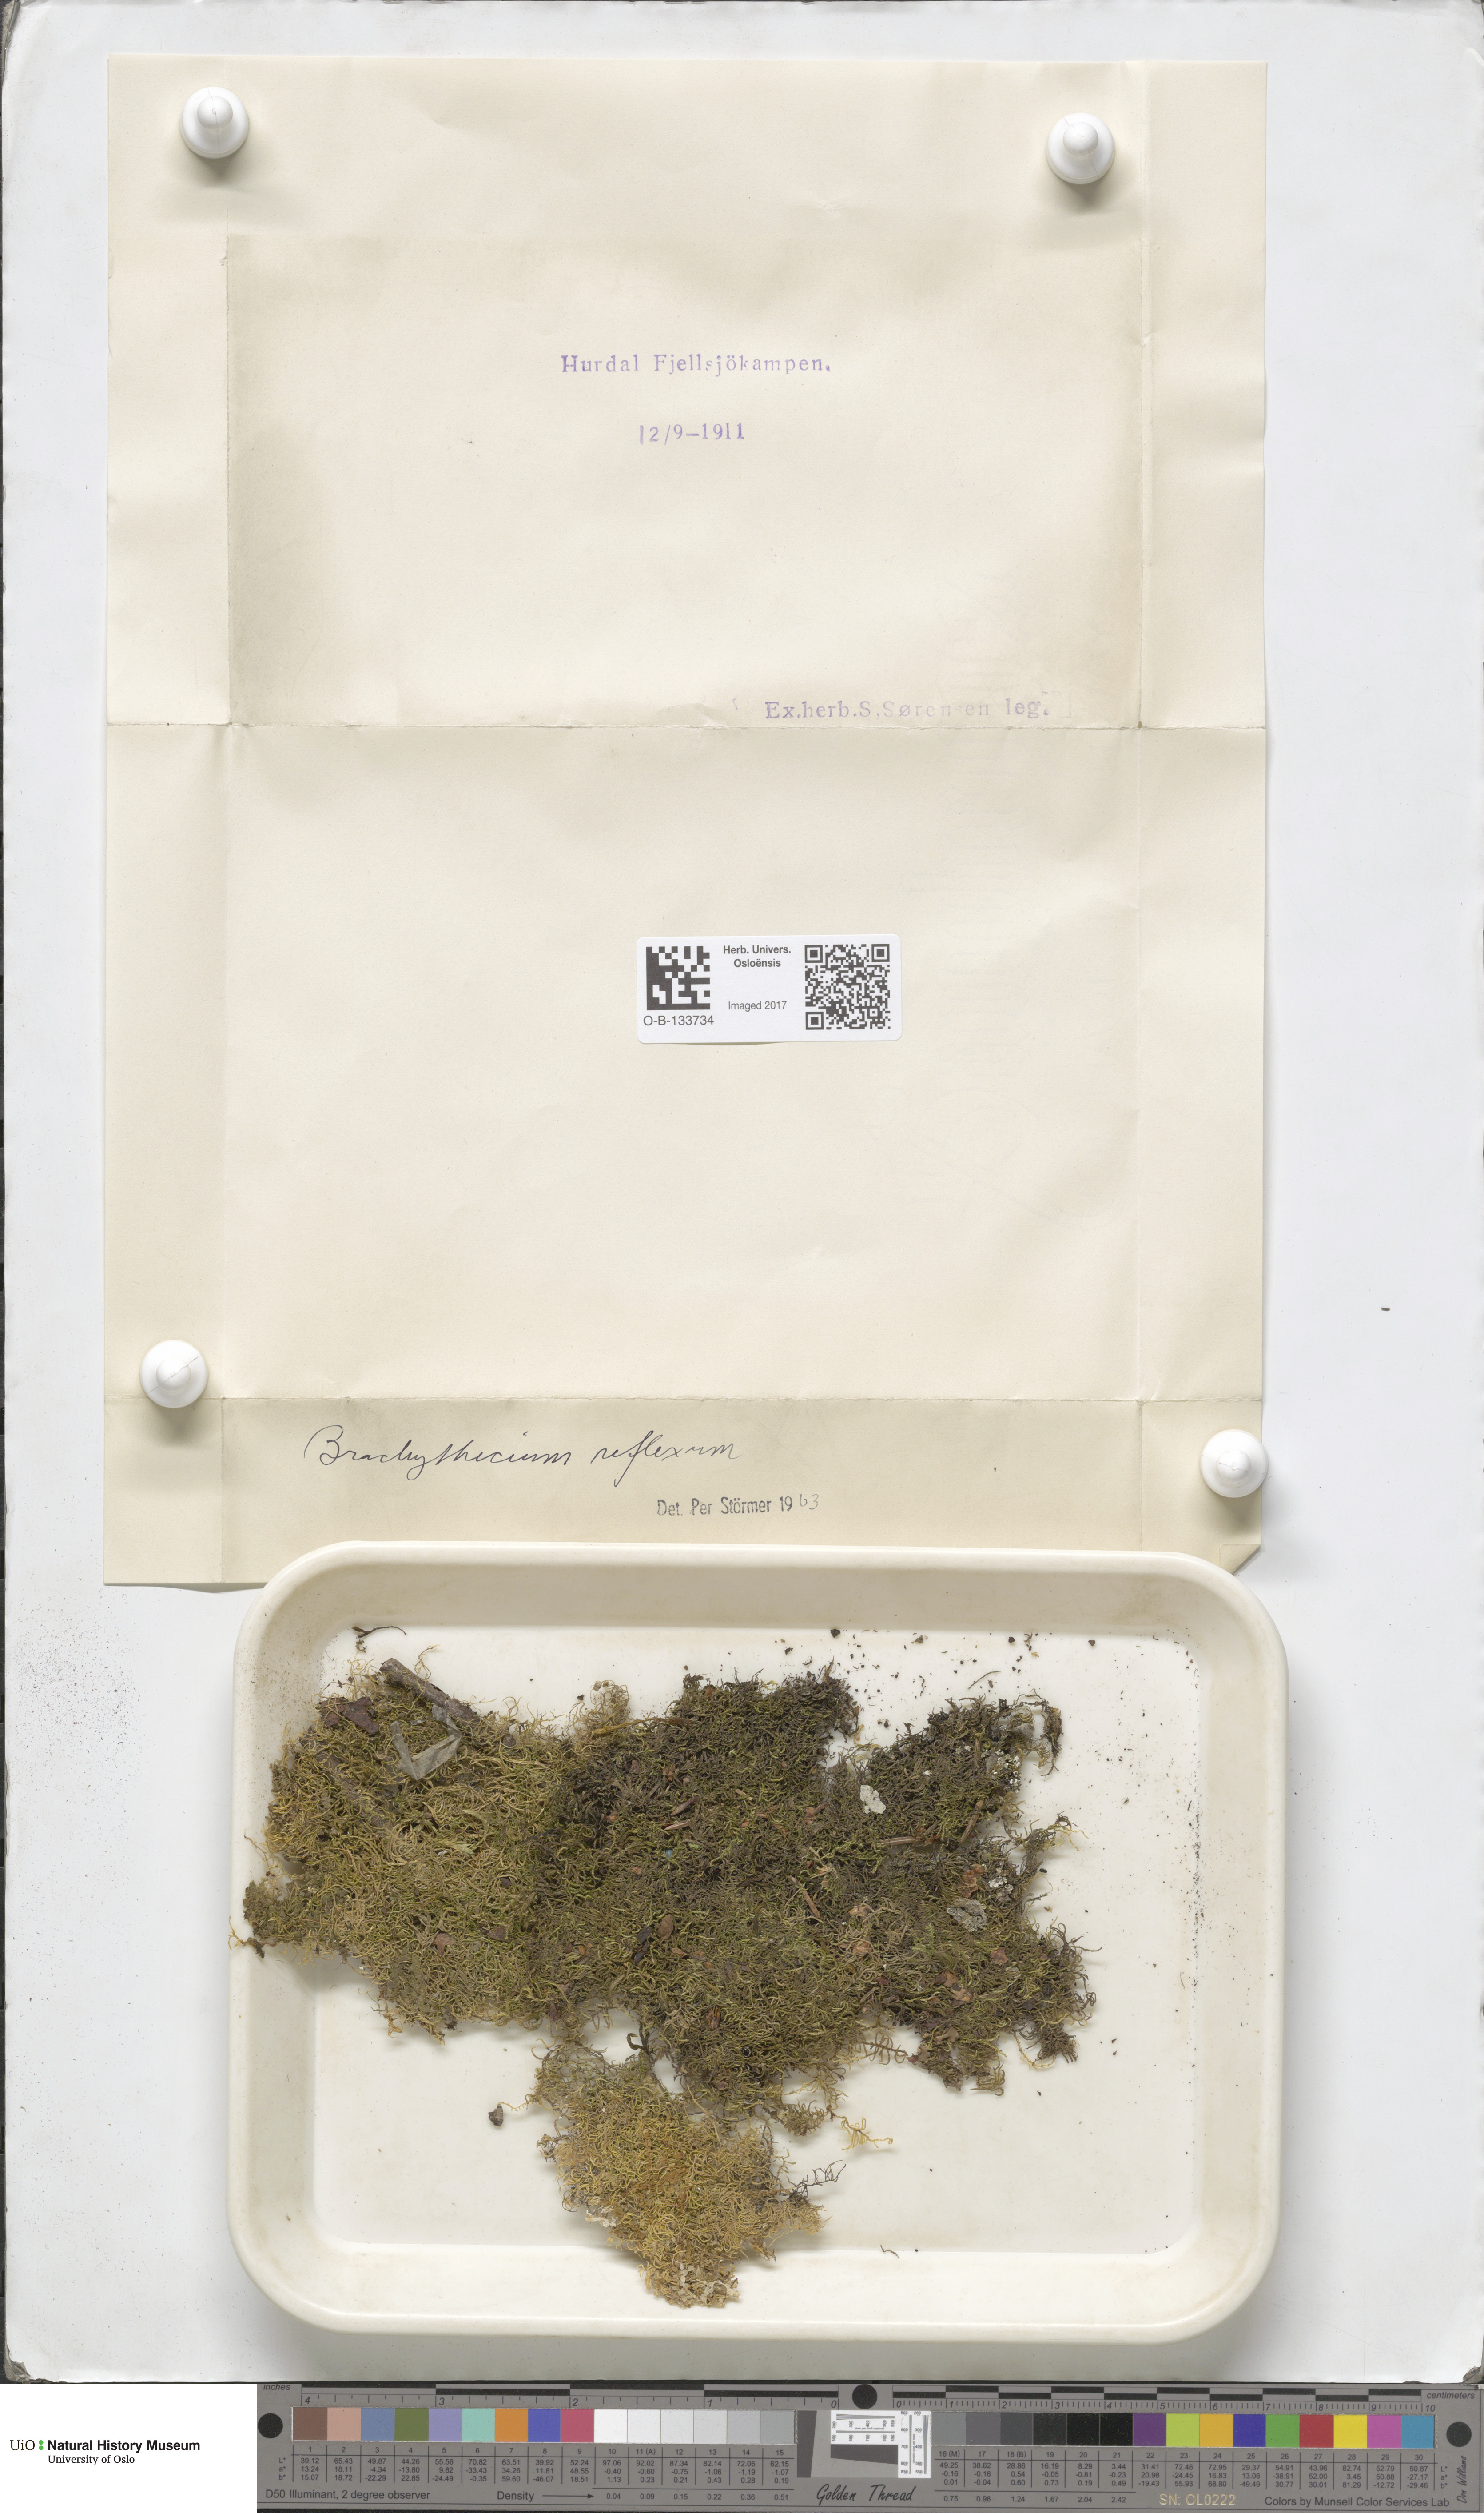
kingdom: Plantae
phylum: Bryophyta
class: Bryopsida
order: Hypnales
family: Brachytheciaceae
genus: Sciuro-hypnum
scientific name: Sciuro-hypnum reflexum
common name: Reflexed feather-moss
